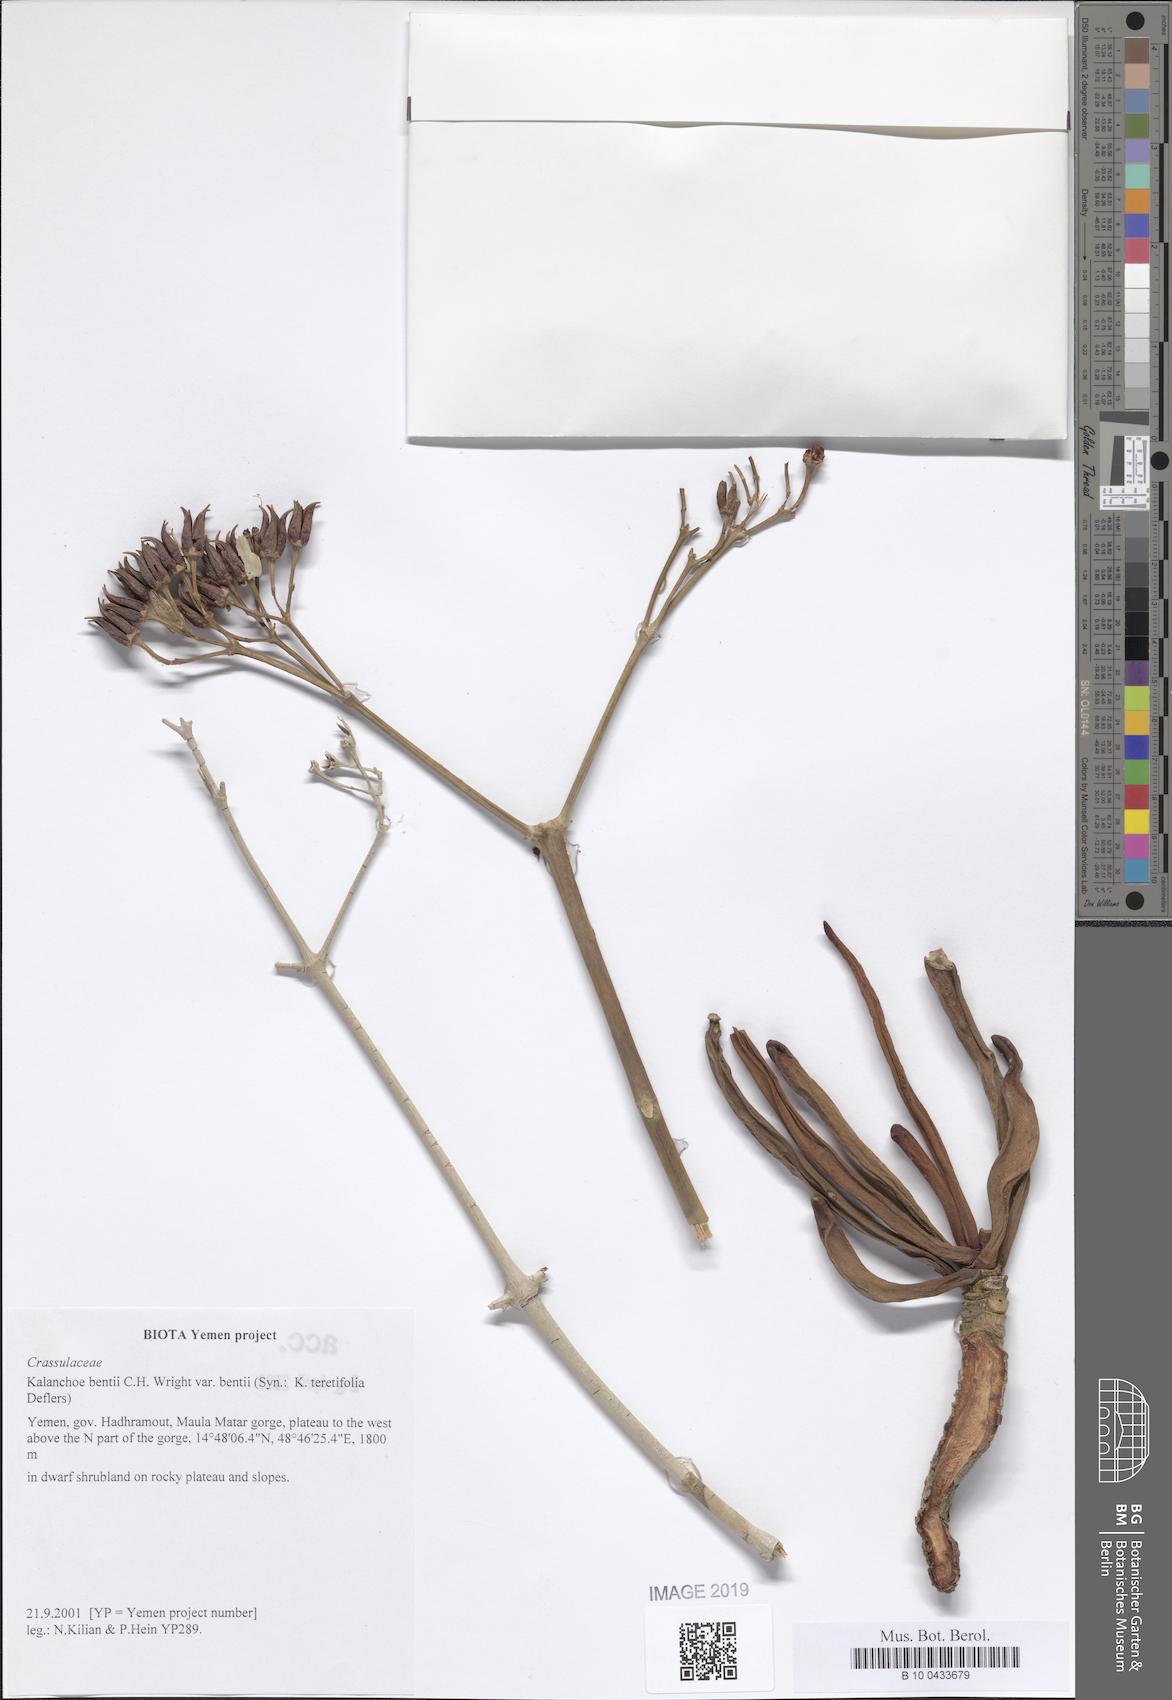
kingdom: Plantae
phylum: Tracheophyta
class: Magnoliopsida
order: Saxifragales
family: Crassulaceae
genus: Kalanchoe
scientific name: Kalanchoe bentii
